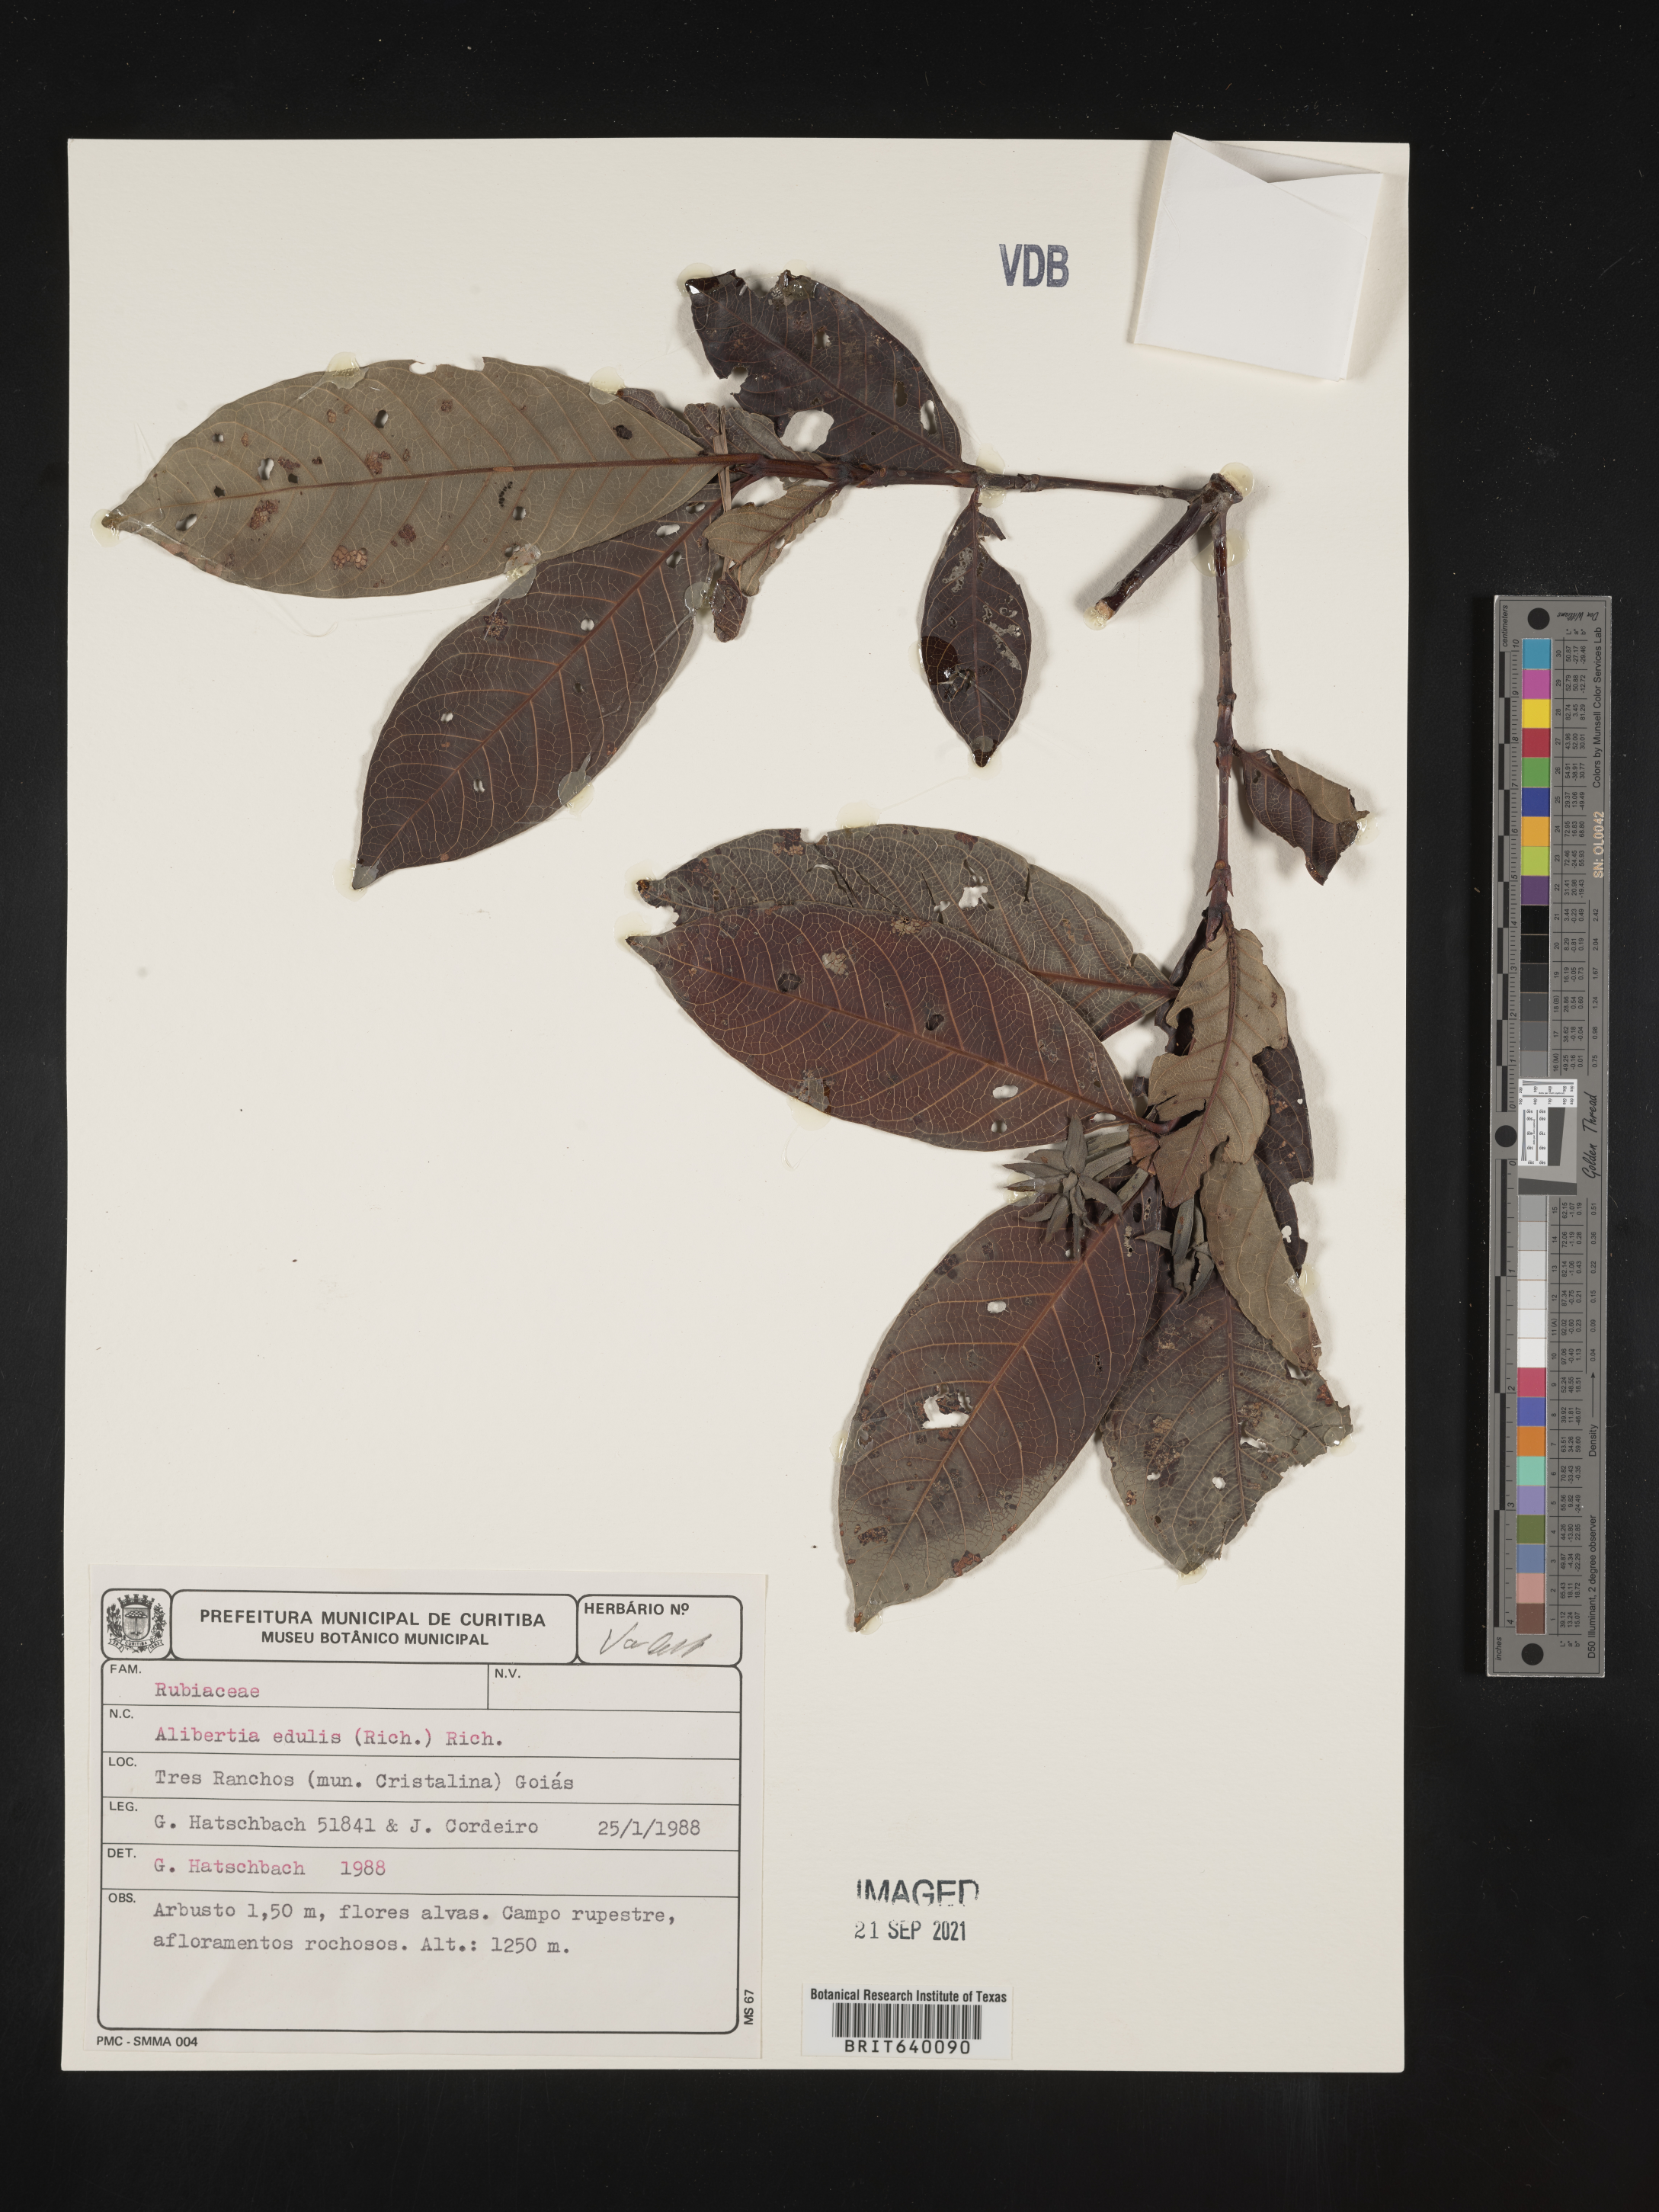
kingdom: Plantae
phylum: Tracheophyta
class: Magnoliopsida
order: Gentianales
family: Rubiaceae
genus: Alibertia
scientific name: Alibertia
